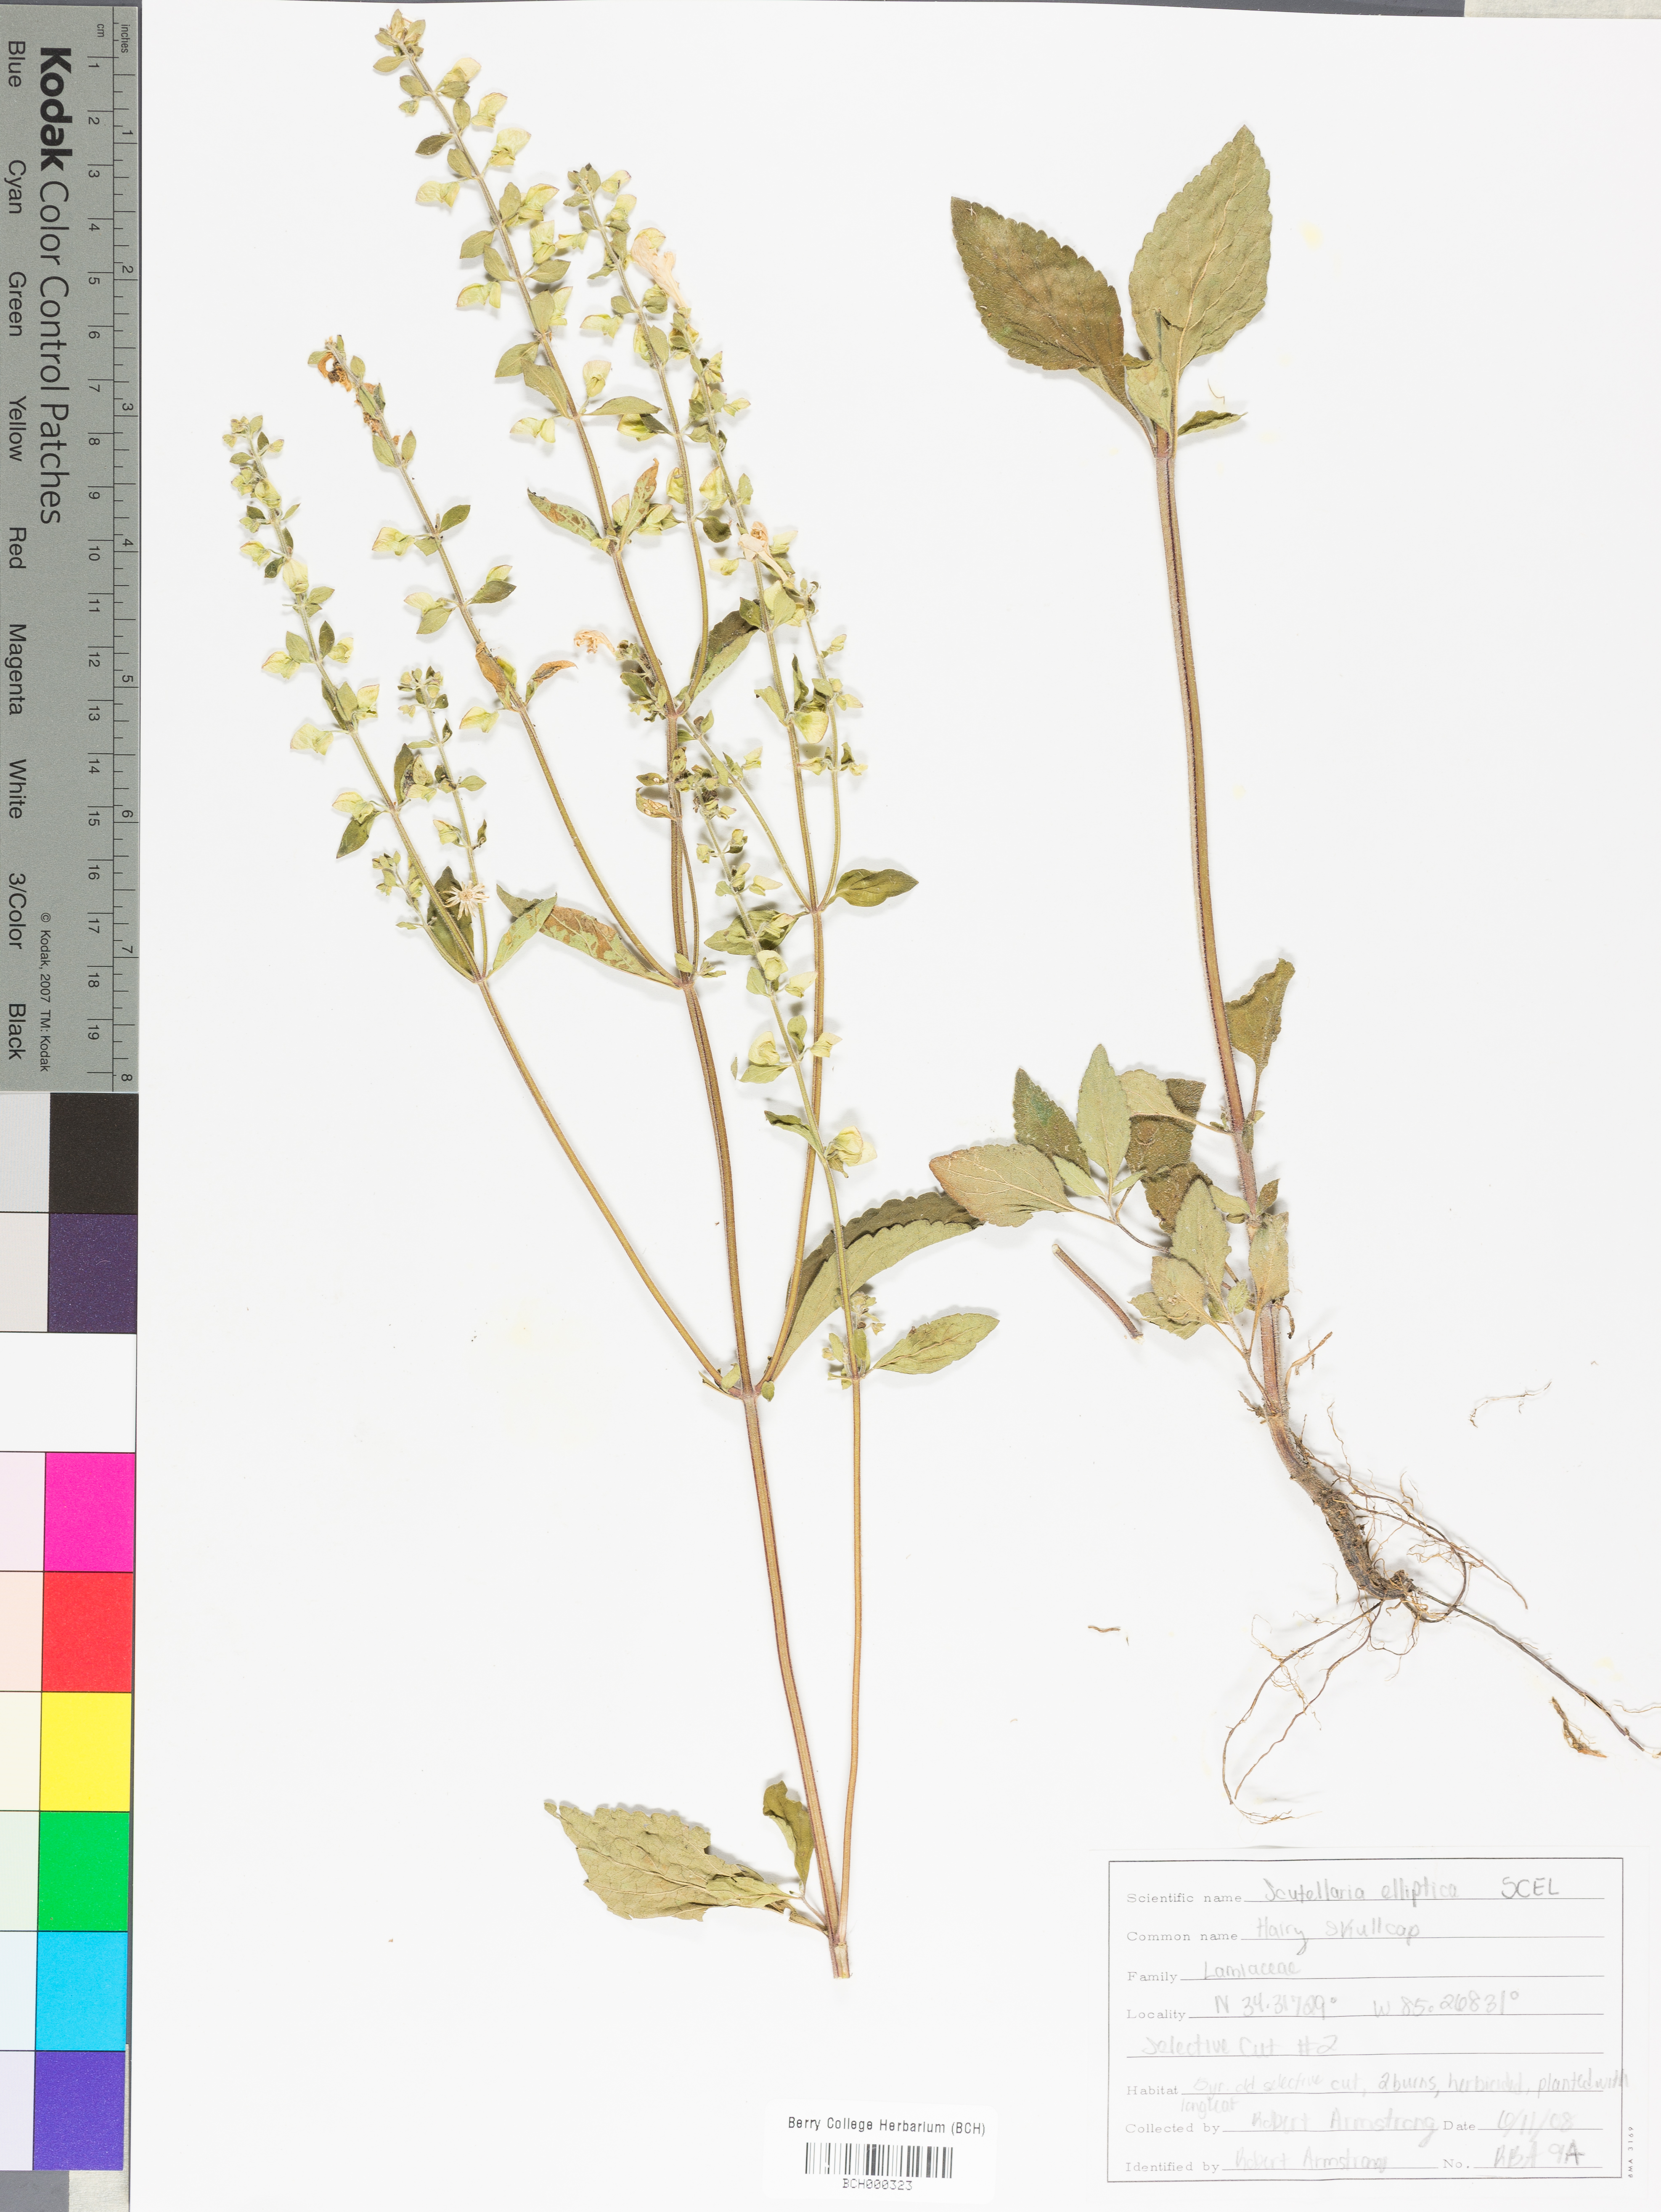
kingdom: Plantae
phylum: Tracheophyta
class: Magnoliopsida
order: Lamiales
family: Lamiaceae
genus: Scutellaria
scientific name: Scutellaria elliptica
